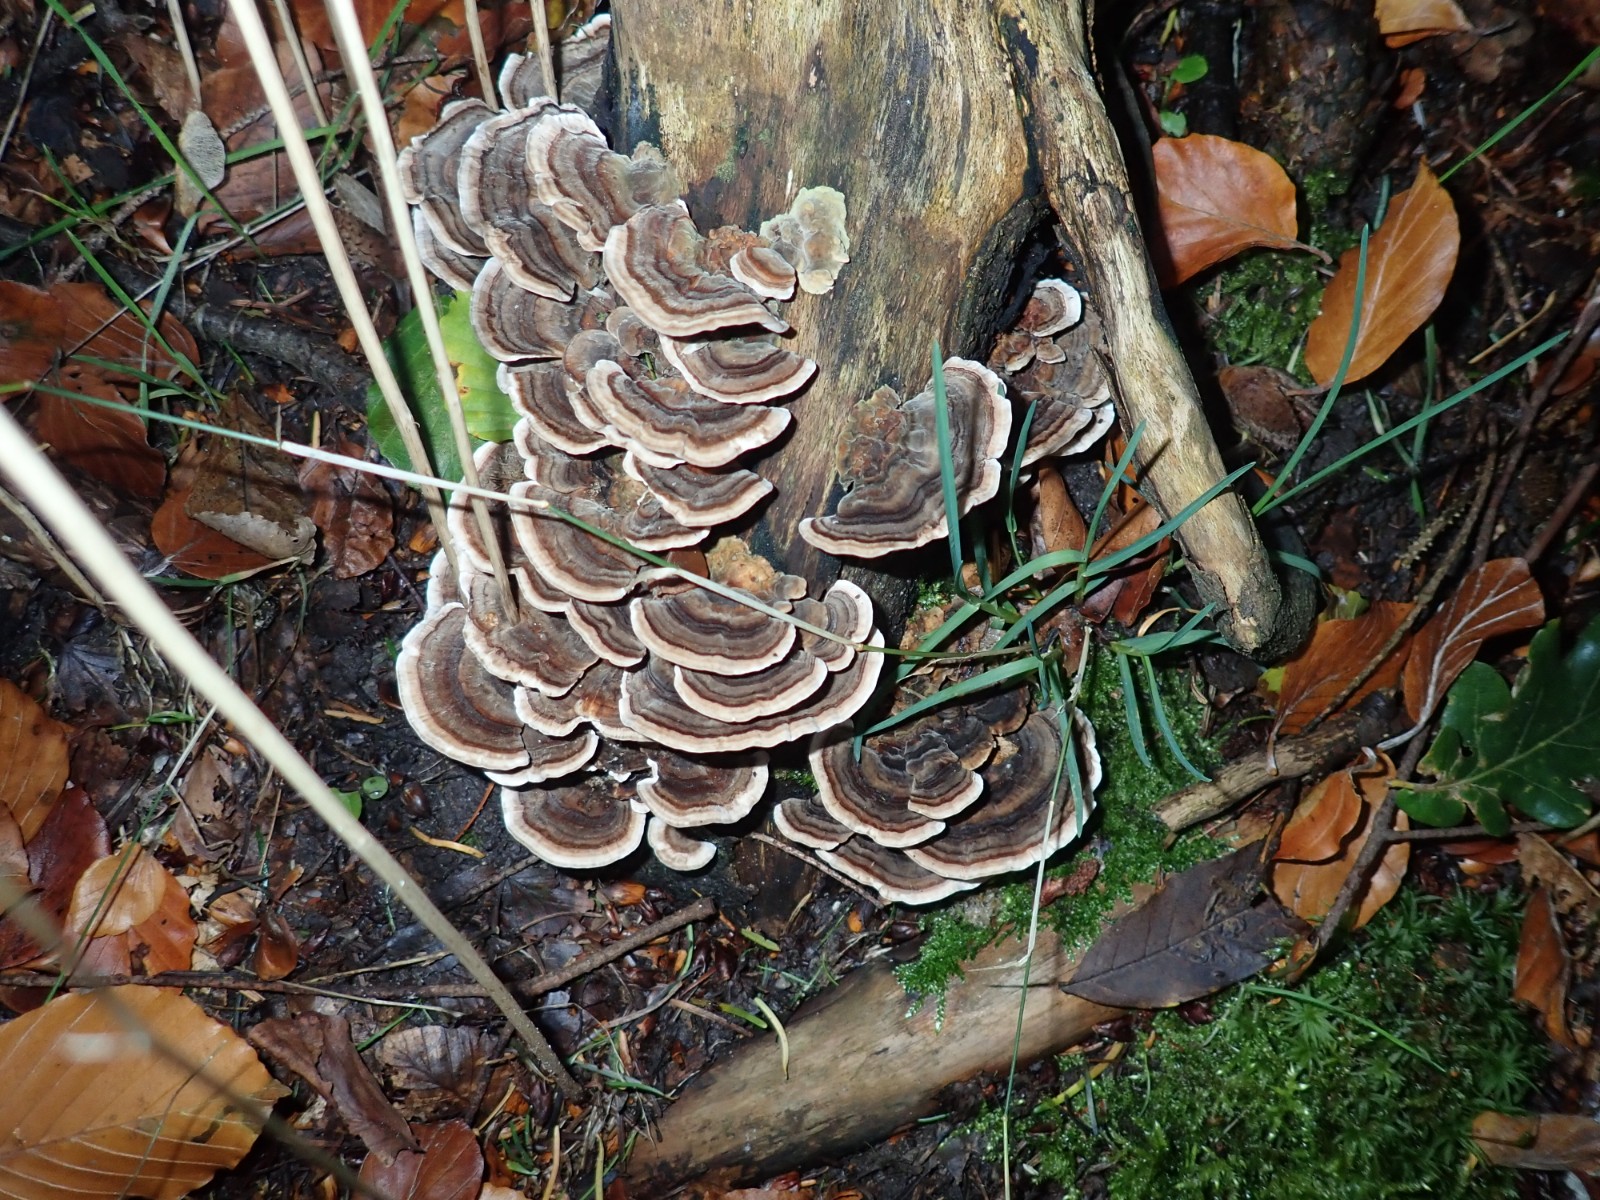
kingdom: Fungi
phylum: Basidiomycota
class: Agaricomycetes
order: Polyporales
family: Polyporaceae
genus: Trametes
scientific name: Trametes versicolor
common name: broget læderporesvamp
